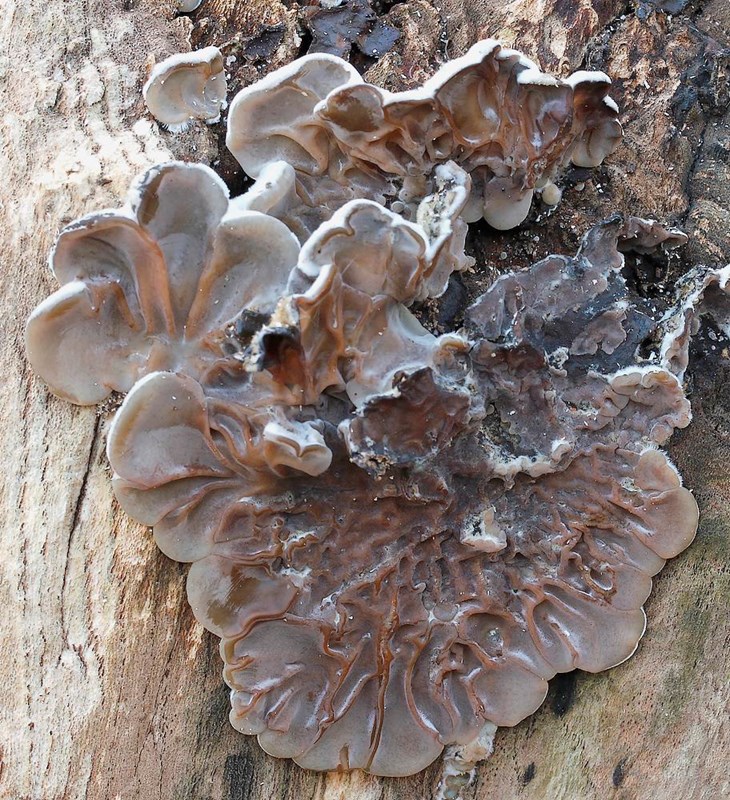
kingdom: Fungi
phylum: Basidiomycota
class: Agaricomycetes
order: Auriculariales
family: Auriculariaceae
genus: Auricularia
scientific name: Auricularia mesenterica
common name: håret judasøre
